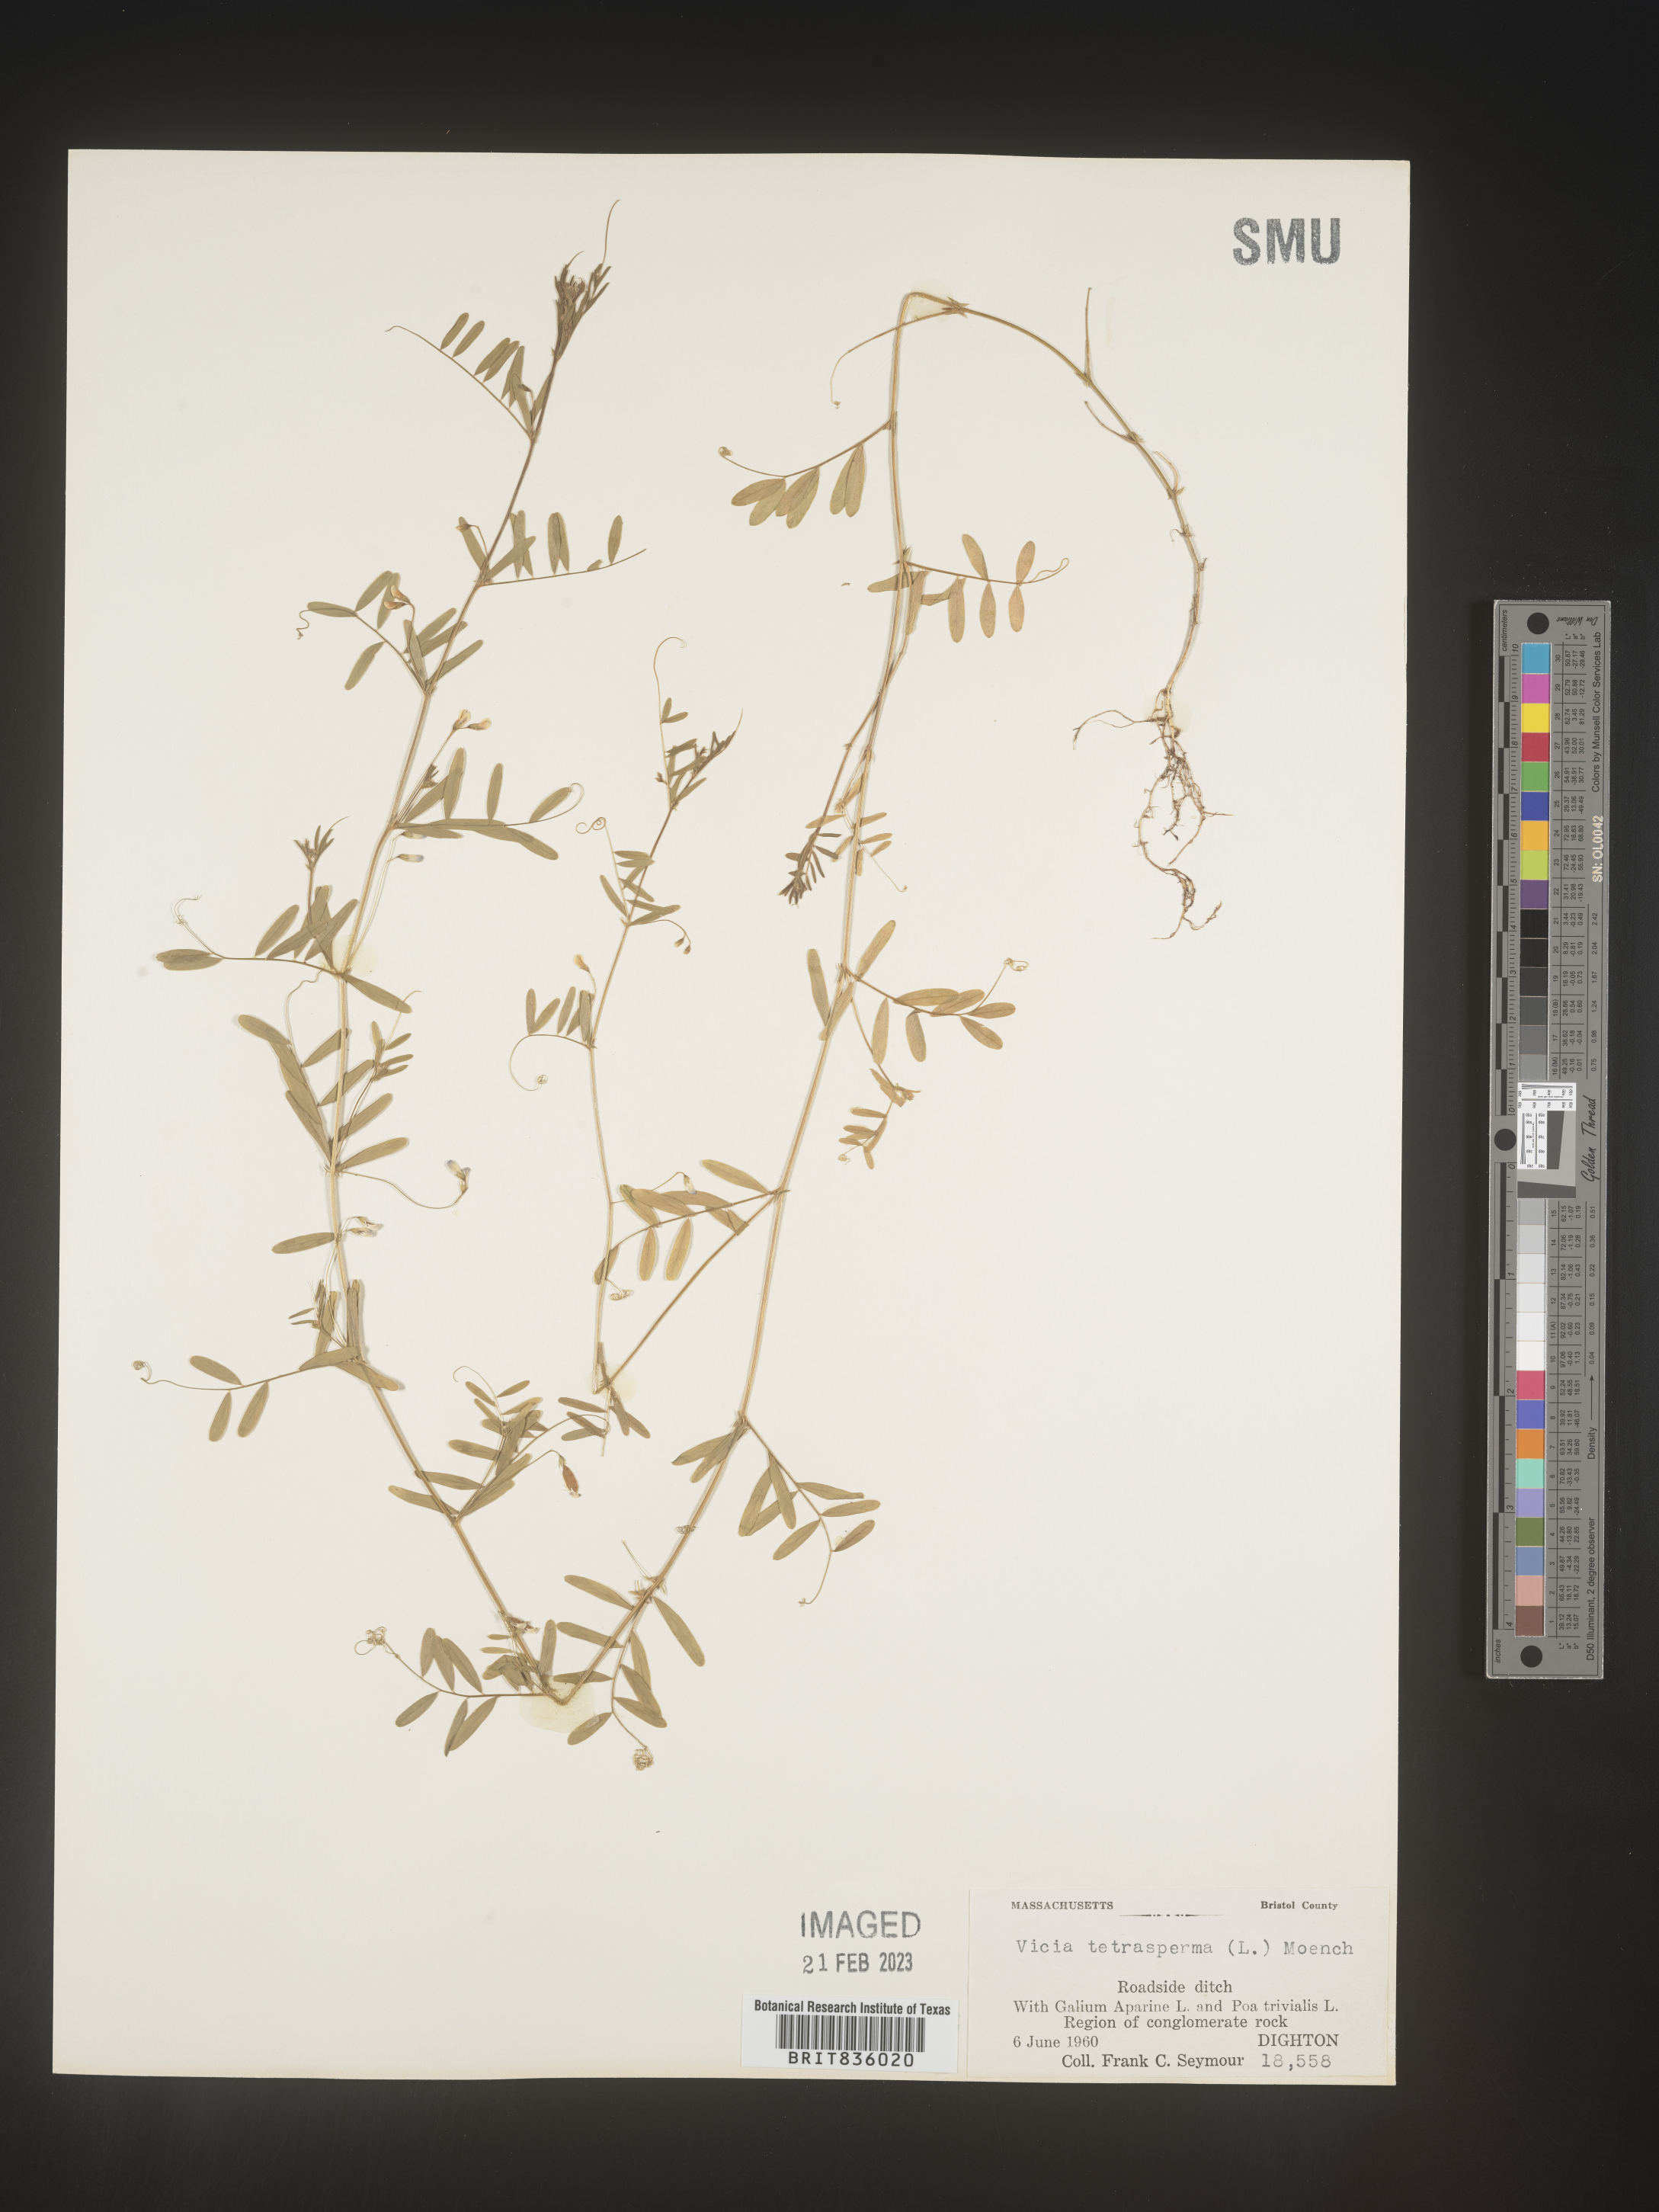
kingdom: Plantae
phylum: Tracheophyta
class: Magnoliopsida
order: Fabales
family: Fabaceae
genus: Vicia
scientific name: Vicia tetrasperma
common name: Smooth tare
